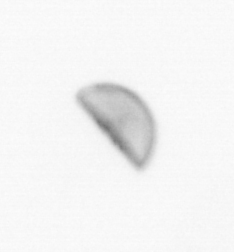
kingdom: Chromista
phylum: Ochrophyta
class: Bacillariophyceae
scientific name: Bacillariophyceae
